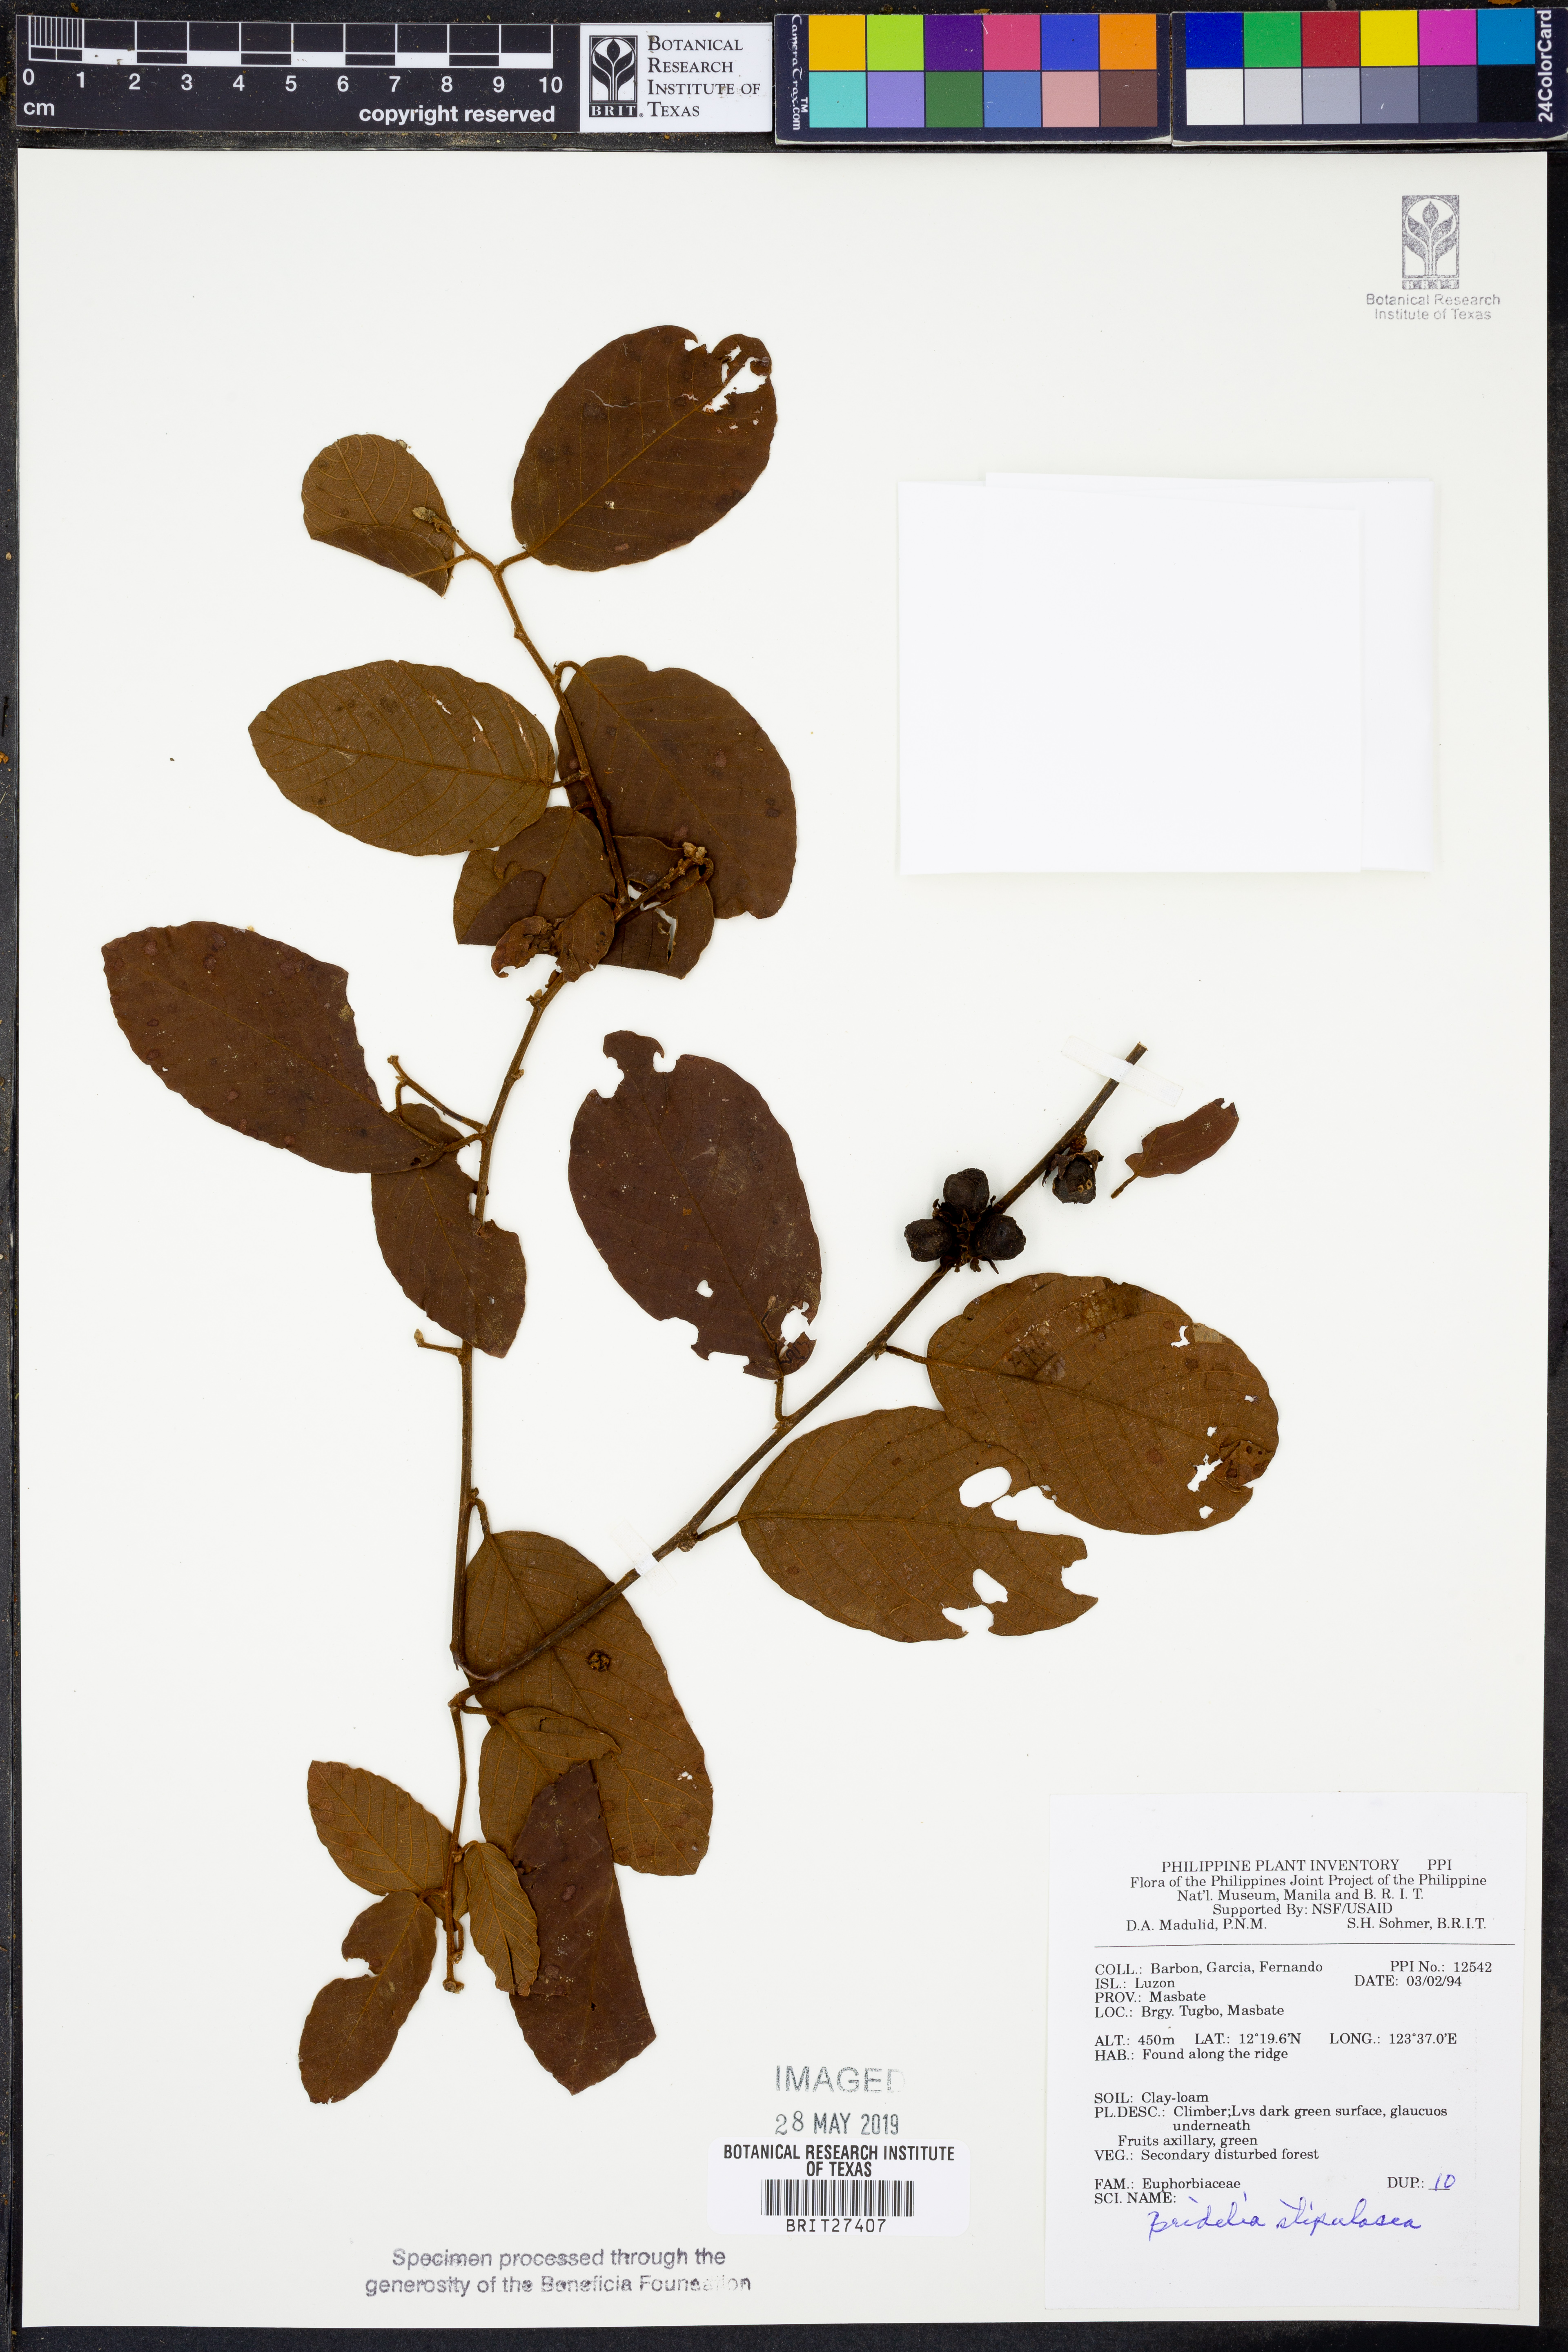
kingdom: Plantae
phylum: Tracheophyta
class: Magnoliopsida
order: Malpighiales
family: Phyllanthaceae
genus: Bridelia
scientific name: Bridelia
